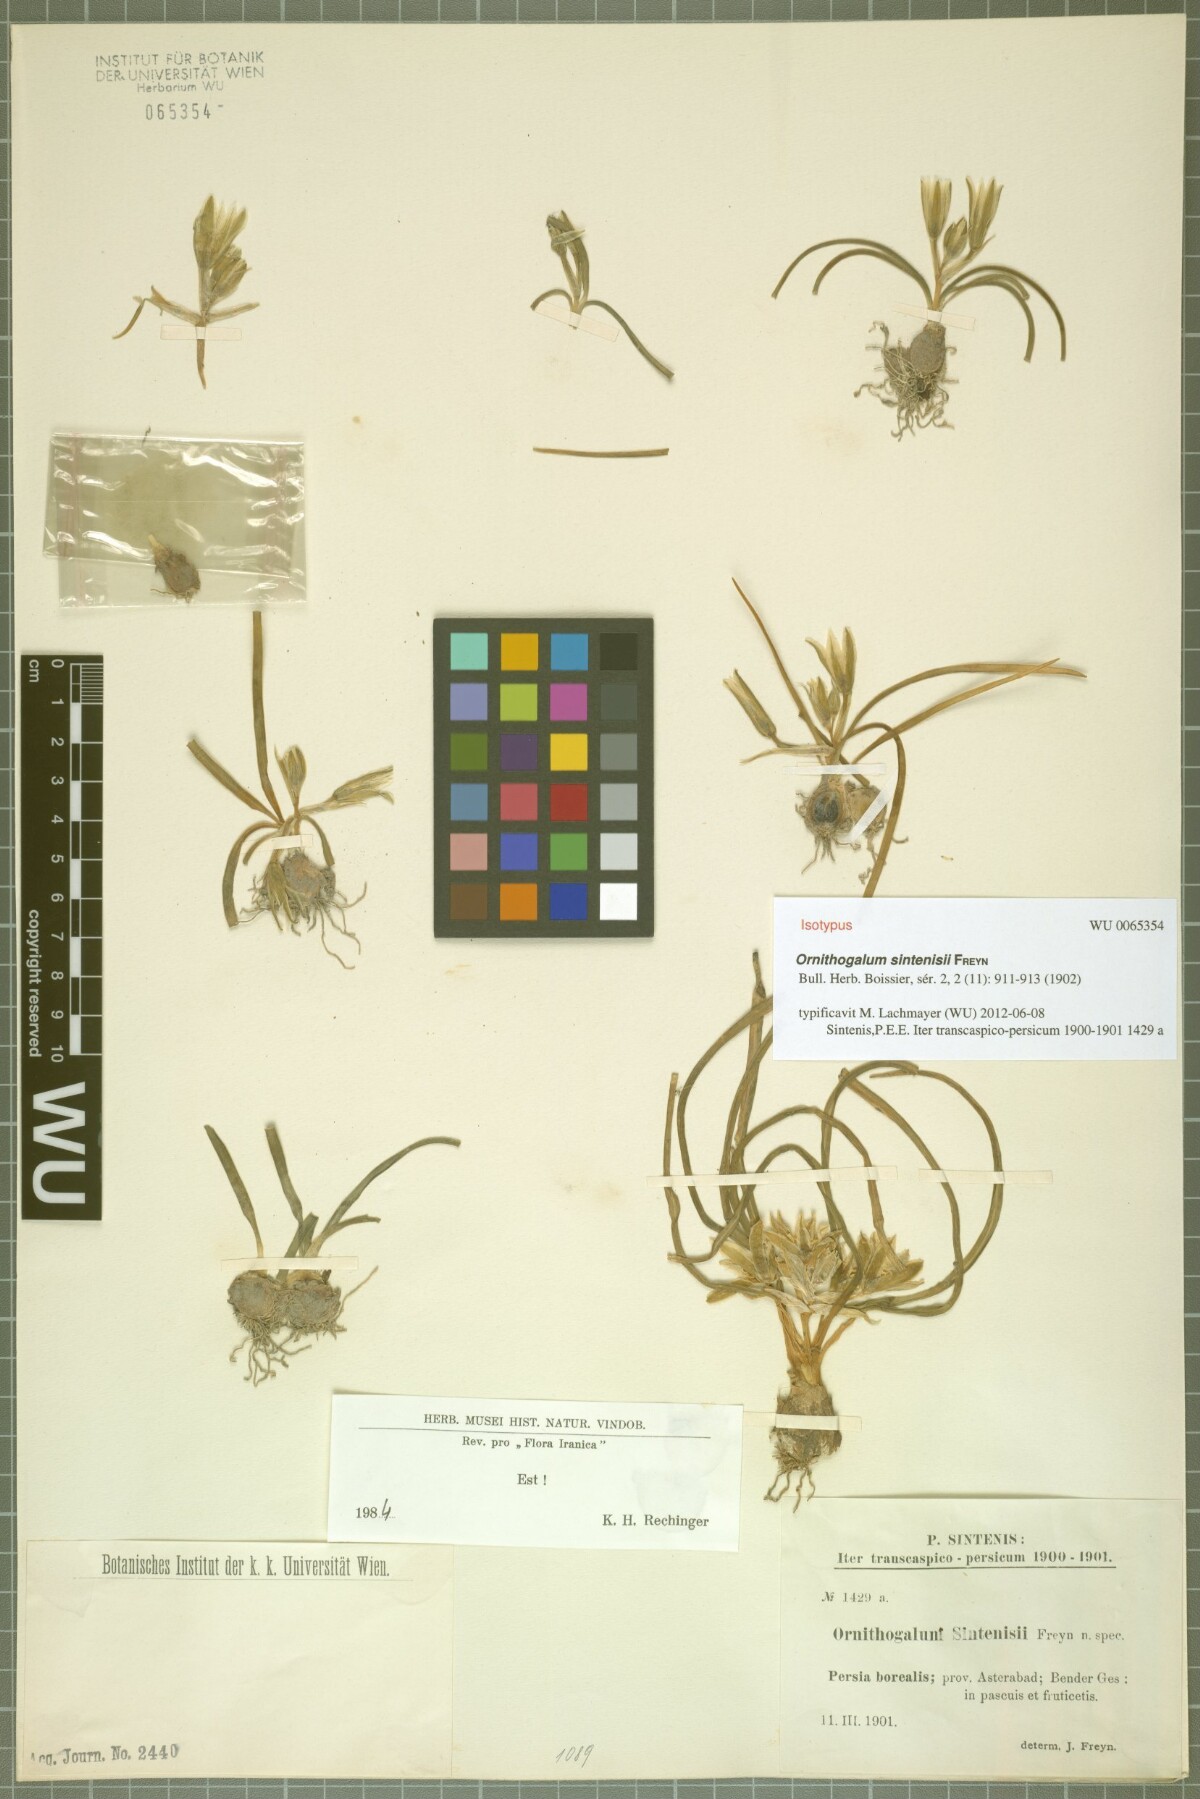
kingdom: Plantae
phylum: Tracheophyta
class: Liliopsida
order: Asparagales
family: Asparagaceae
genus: Ornithogalum
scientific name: Ornithogalum sintenisii
